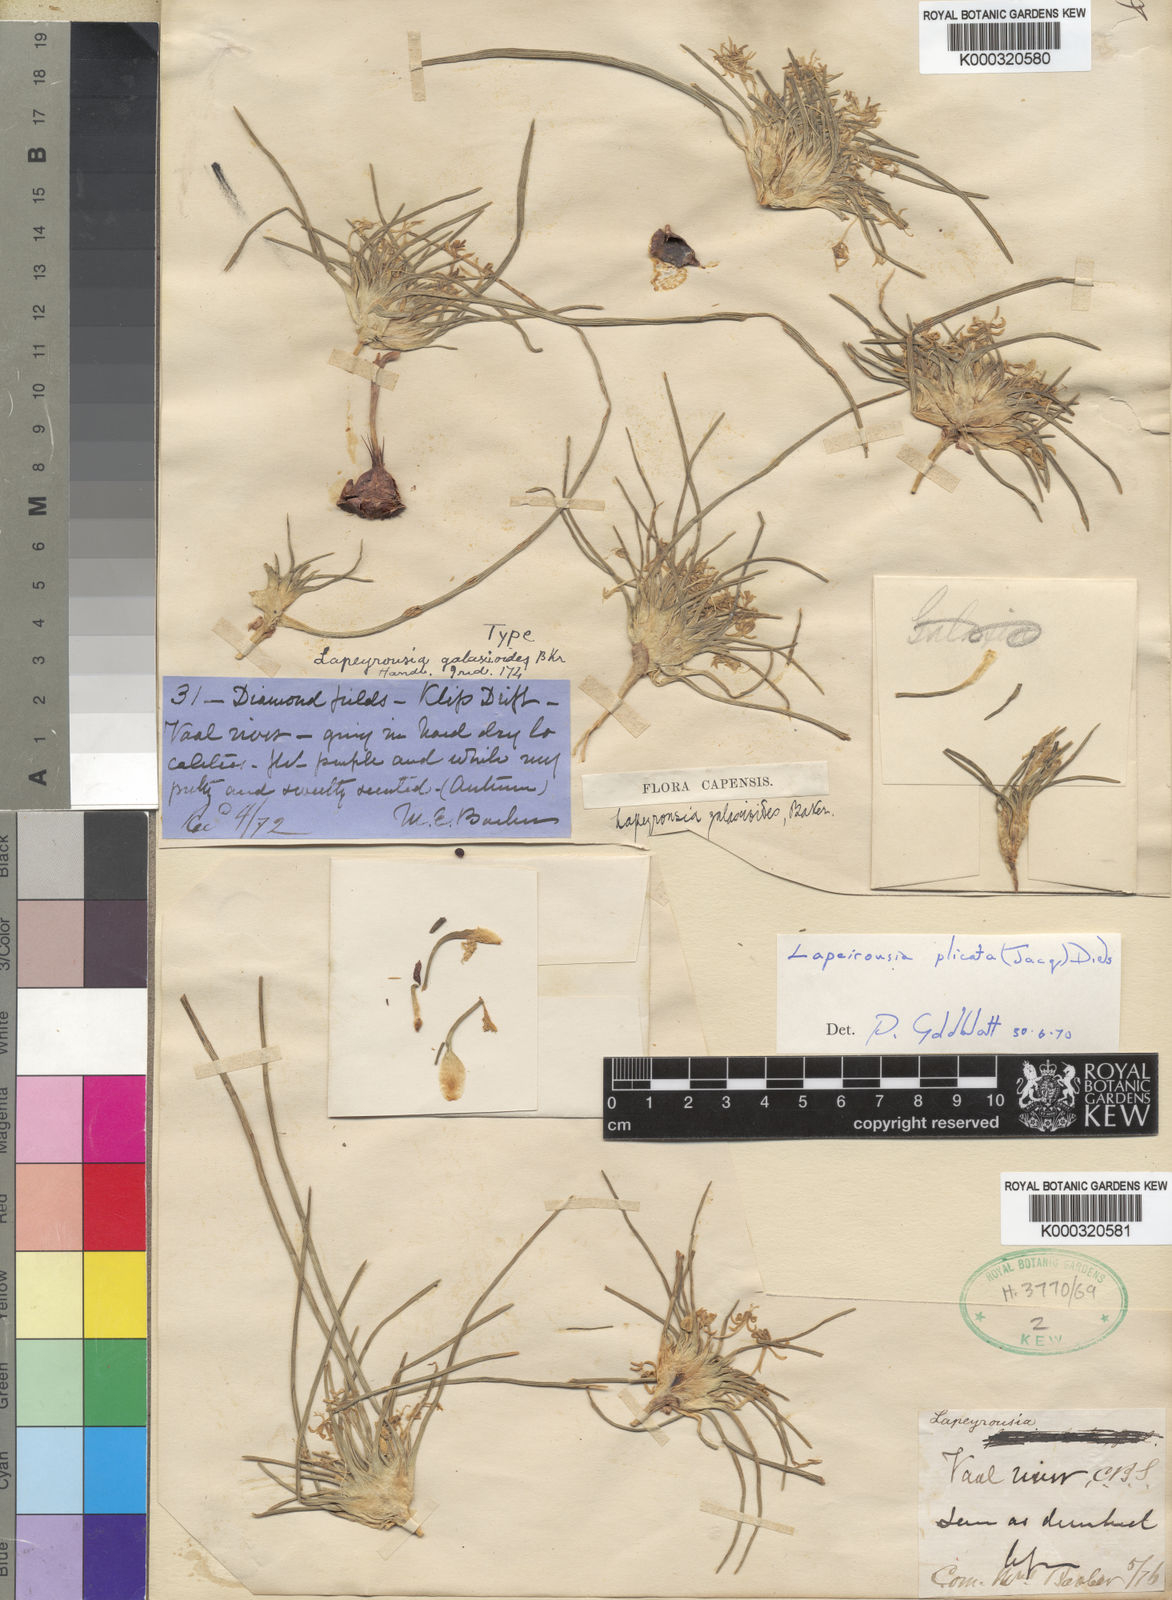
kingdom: Plantae
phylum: Tracheophyta
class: Liliopsida
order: Asparagales
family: Iridaceae
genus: Lapeirousia
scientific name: Lapeirousia plicata
